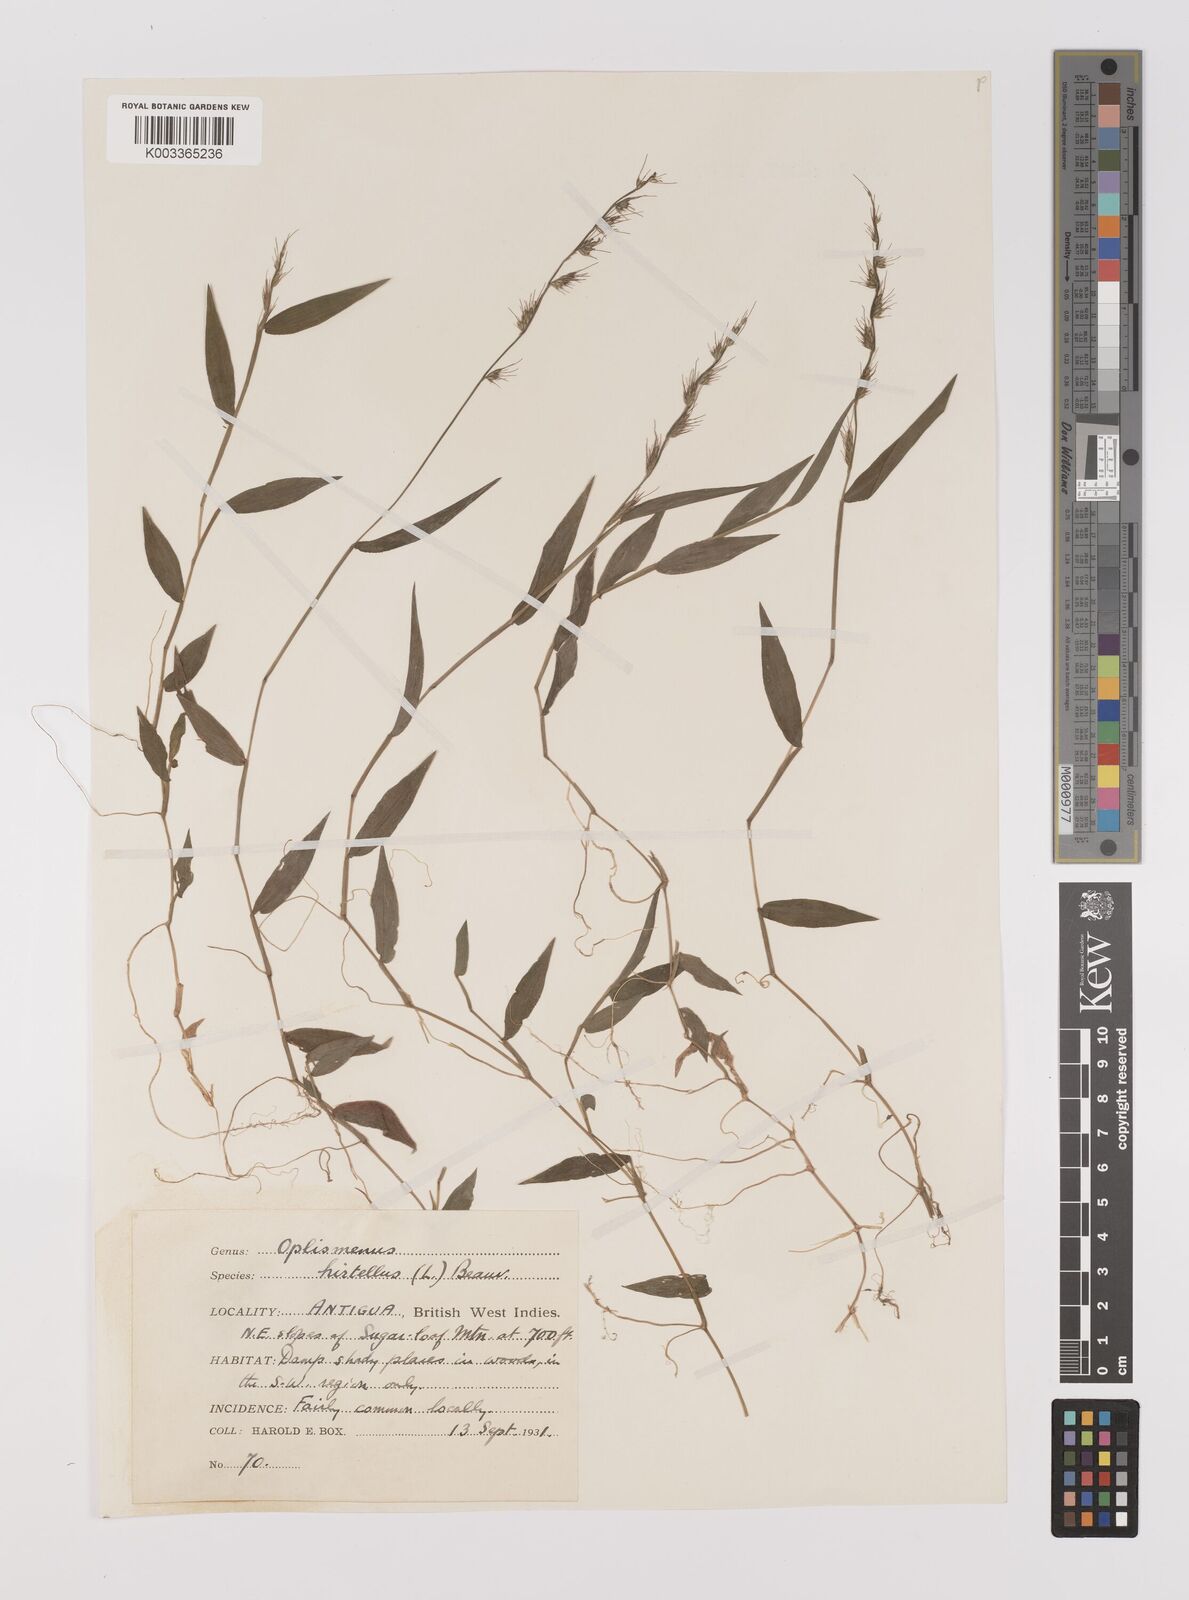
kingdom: Plantae
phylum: Tracheophyta
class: Liliopsida
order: Poales
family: Poaceae
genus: Oplismenus
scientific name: Oplismenus hirtellus
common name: Basketgrass
